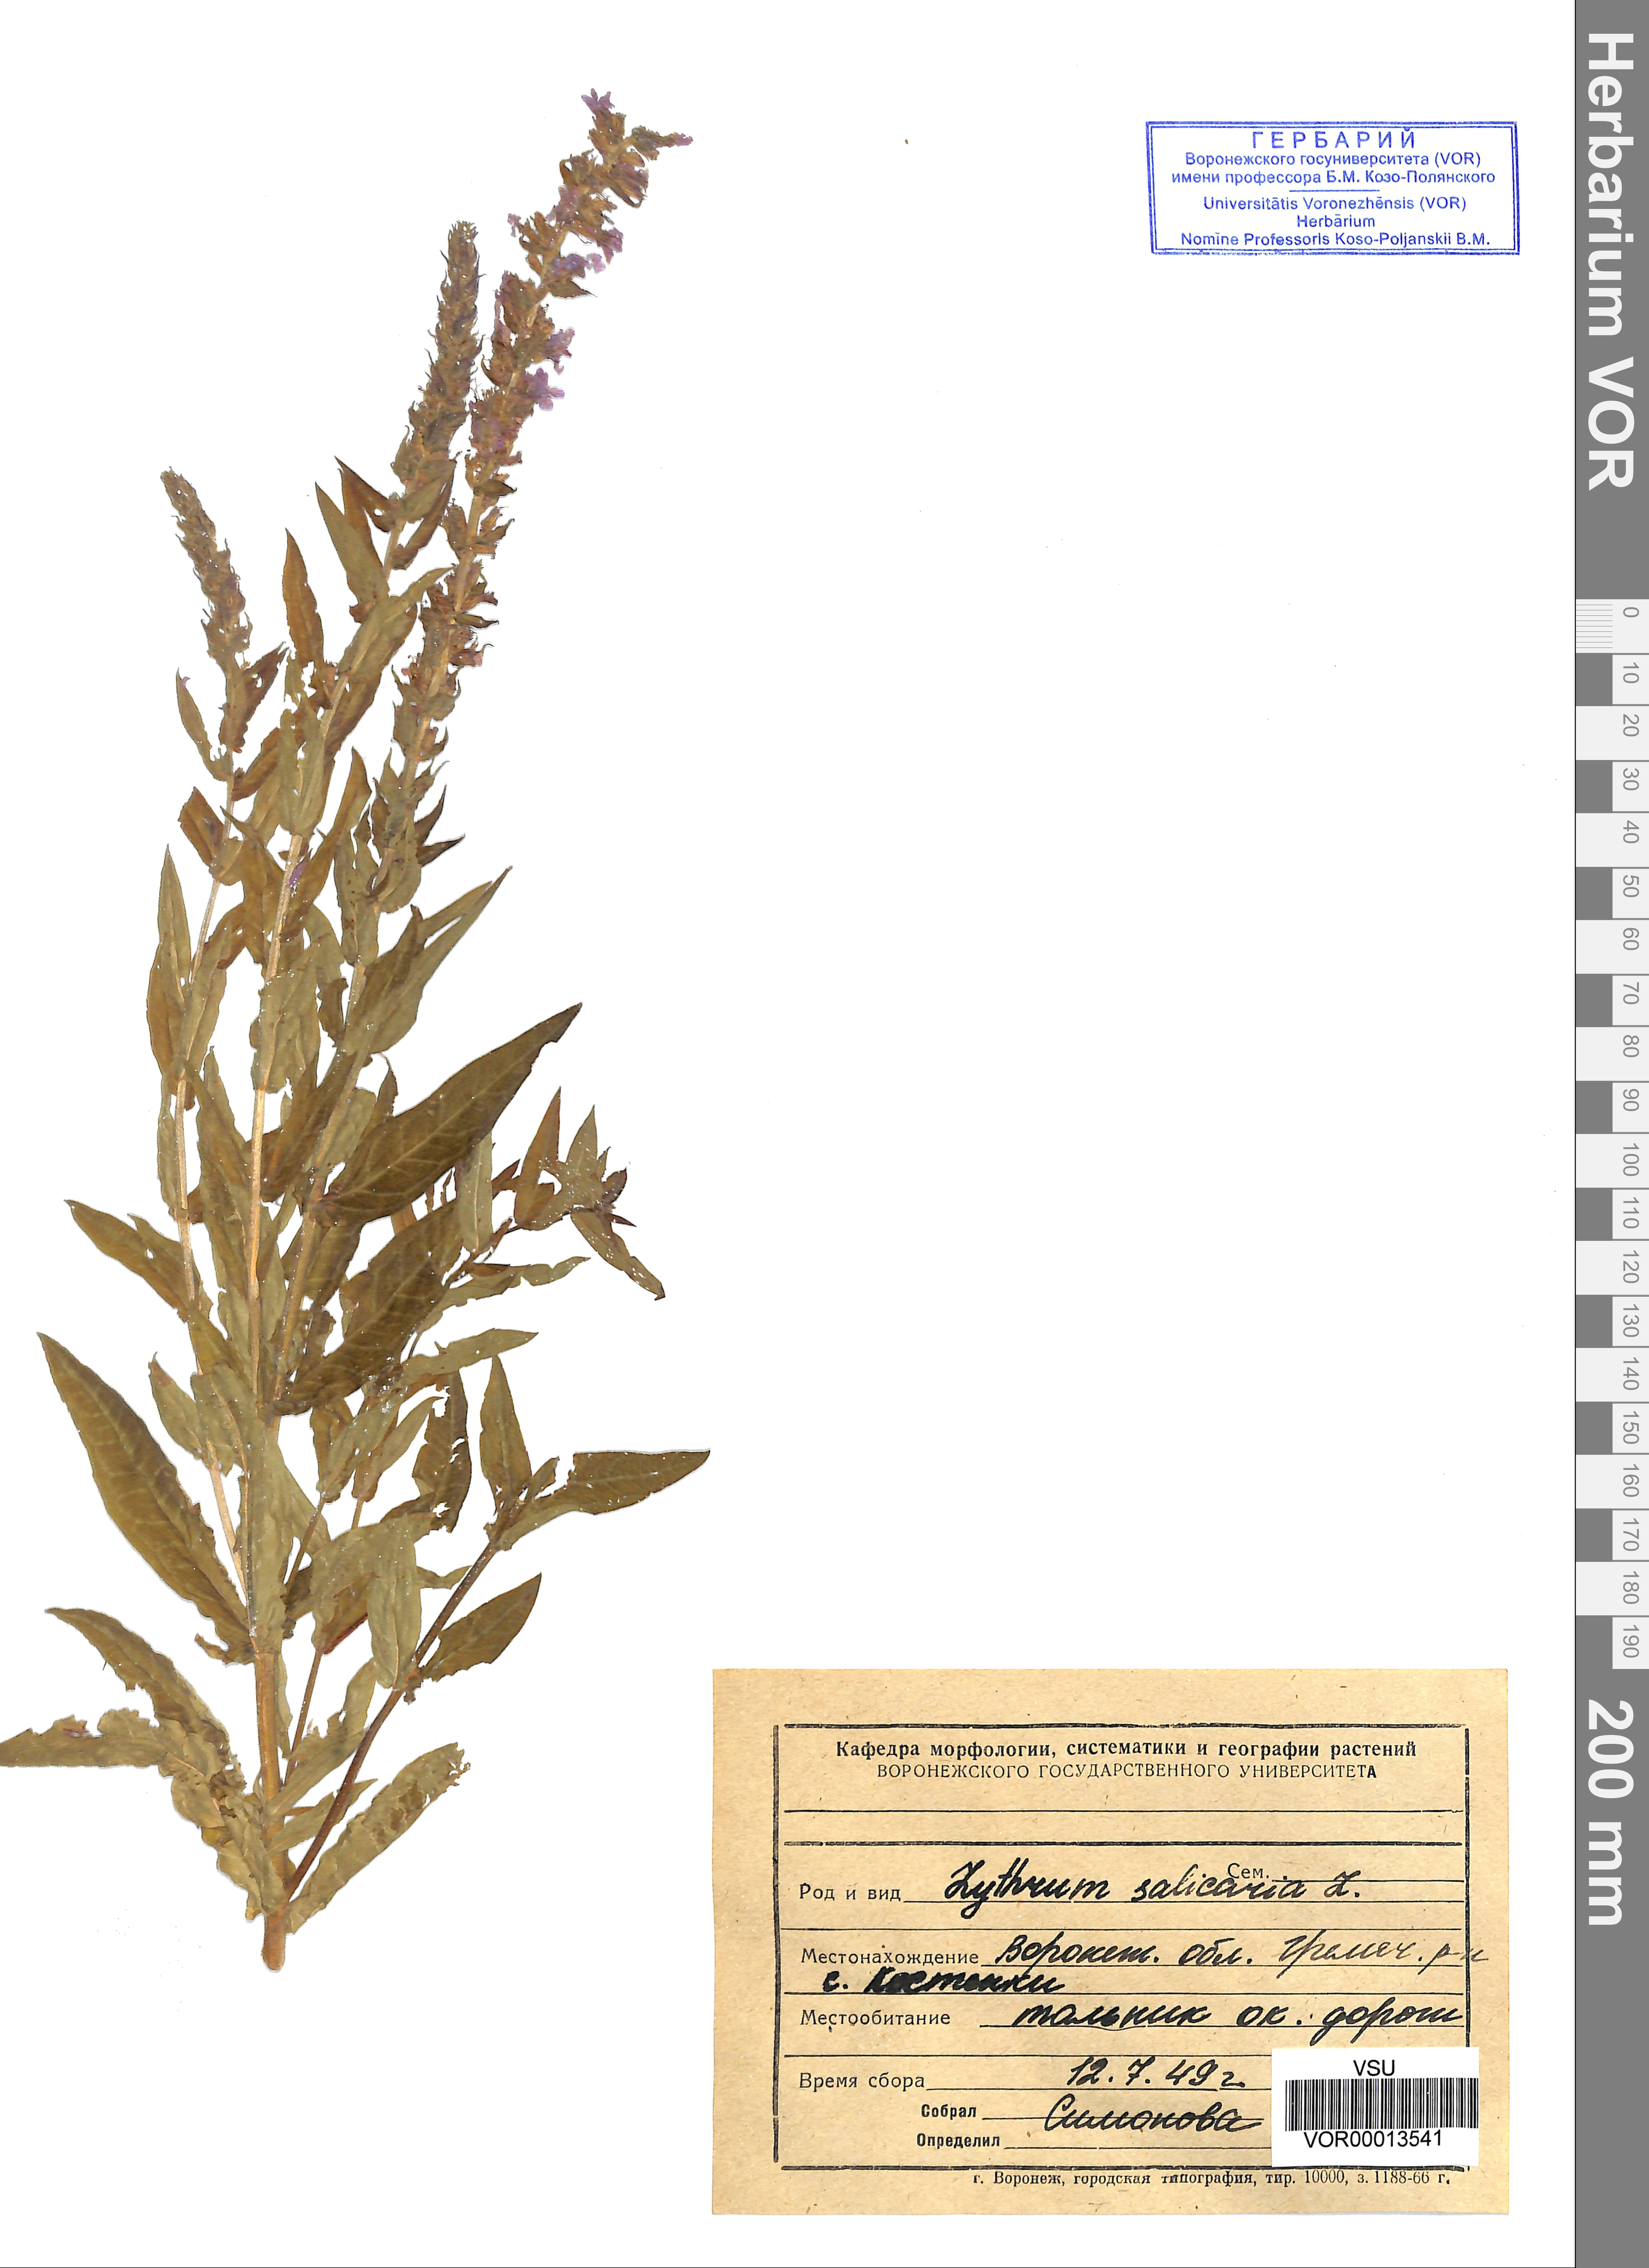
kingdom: Plantae
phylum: Tracheophyta
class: Magnoliopsida
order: Myrtales
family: Lythraceae
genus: Lythrum
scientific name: Lythrum salicaria
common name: Purple loosestrife
